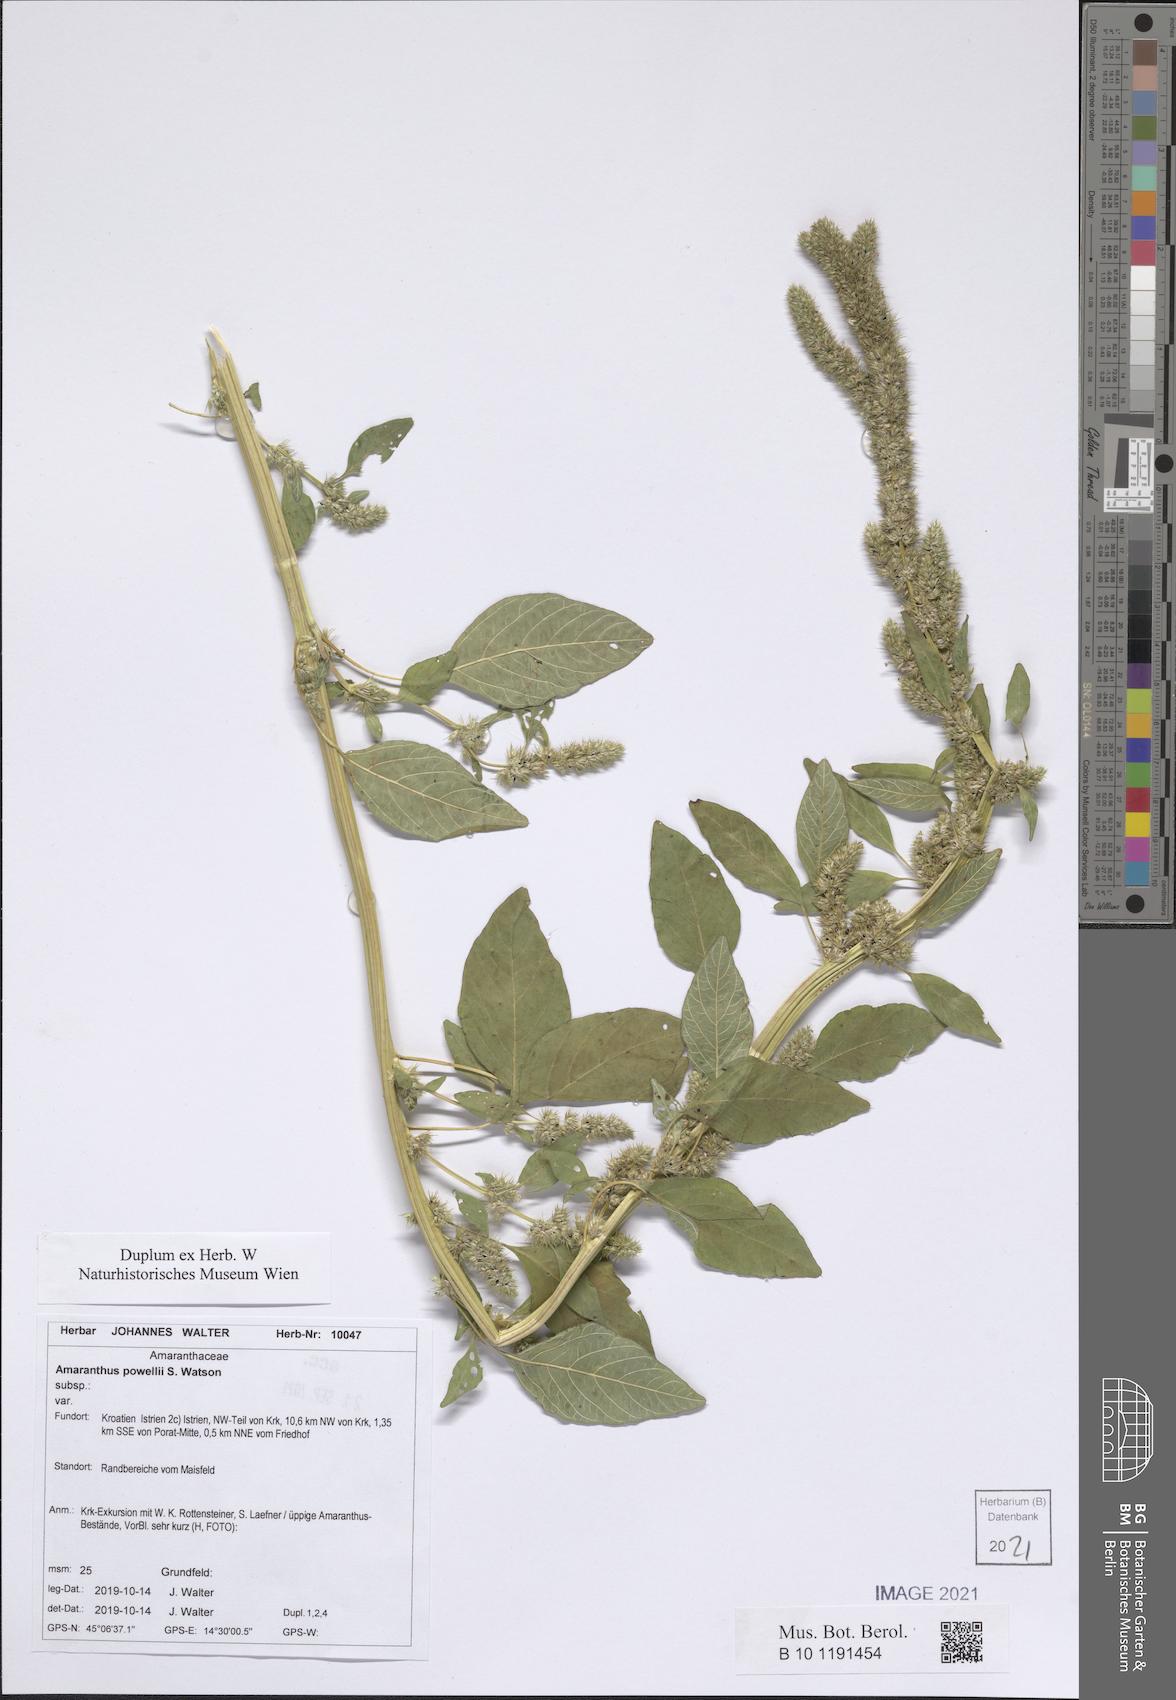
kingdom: Plantae
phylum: Tracheophyta
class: Magnoliopsida
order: Caryophyllales
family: Amaranthaceae
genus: Amaranthus
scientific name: Amaranthus powellii
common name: Powell's amaranth
